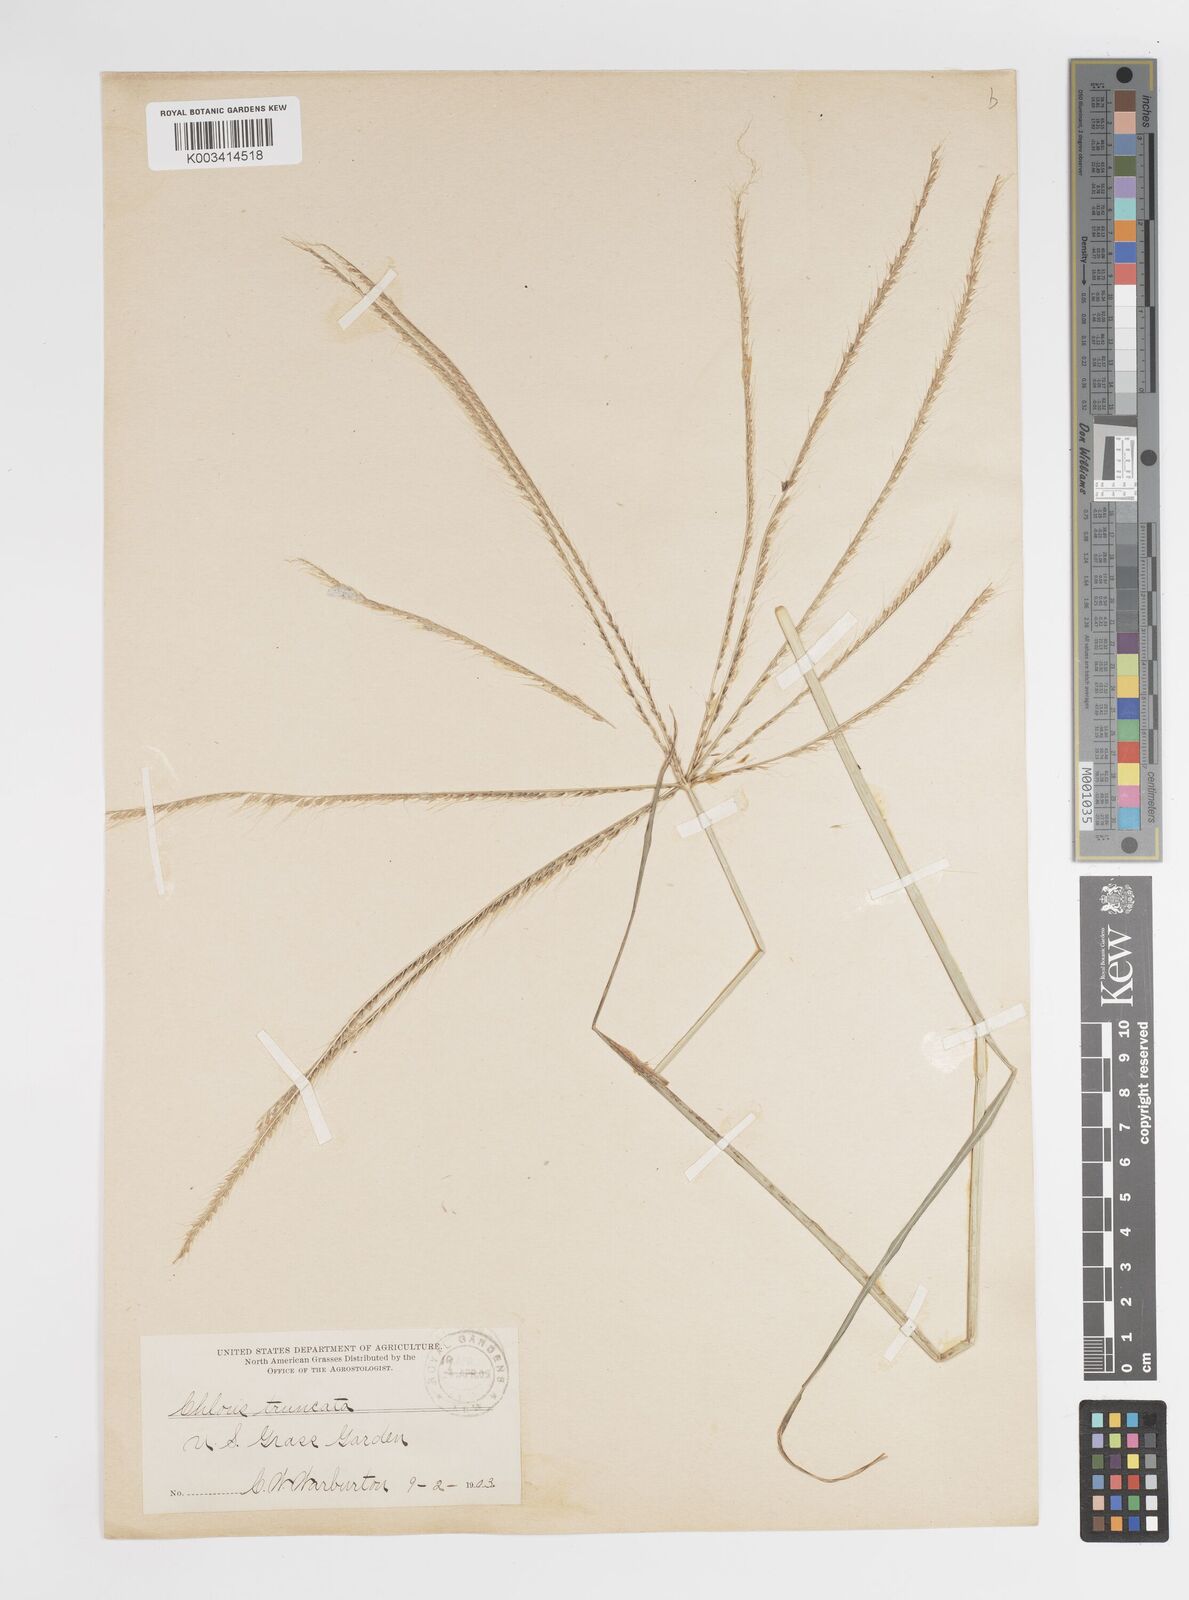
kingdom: Plantae
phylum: Tracheophyta
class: Liliopsida
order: Poales
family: Poaceae
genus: Chloris
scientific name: Chloris truncata
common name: Windmill-grass
